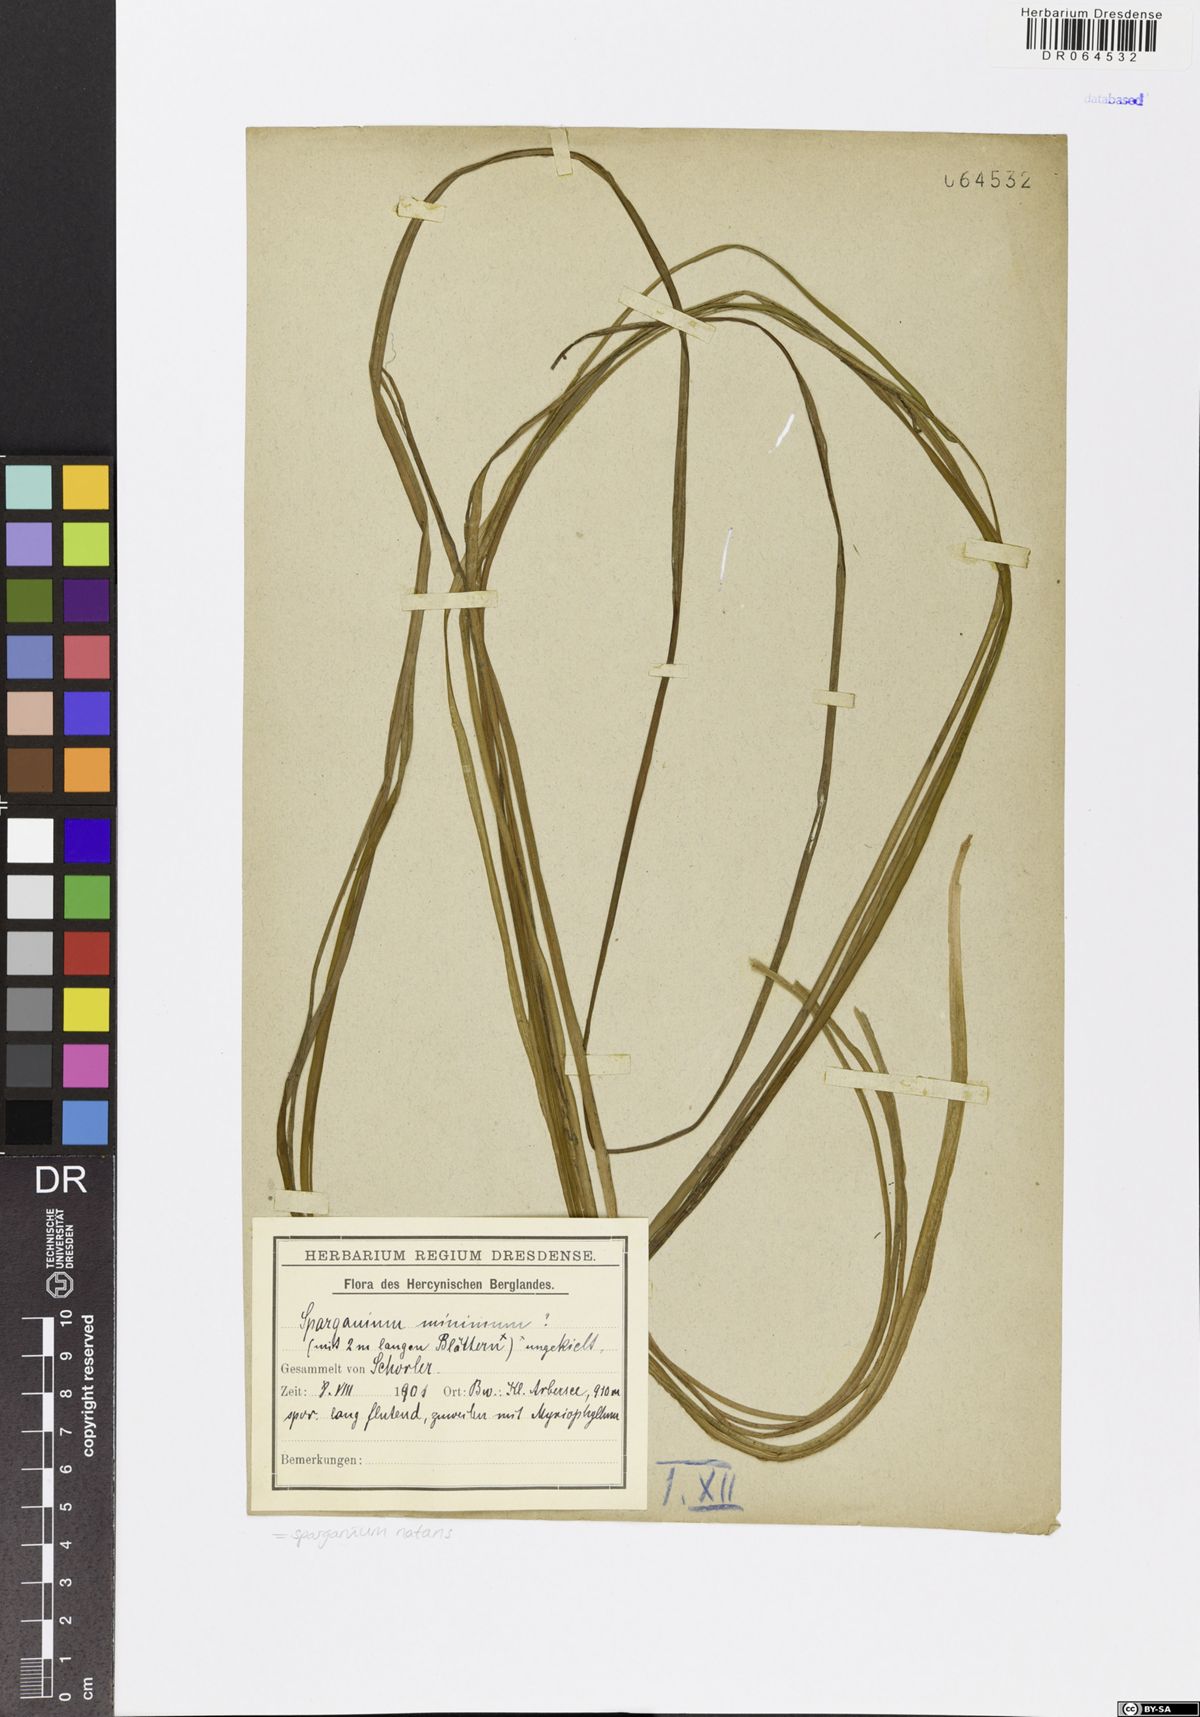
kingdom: Plantae
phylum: Tracheophyta
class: Liliopsida
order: Poales
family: Typhaceae
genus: Sparganium
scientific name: Sparganium natans
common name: Least bur-reed
